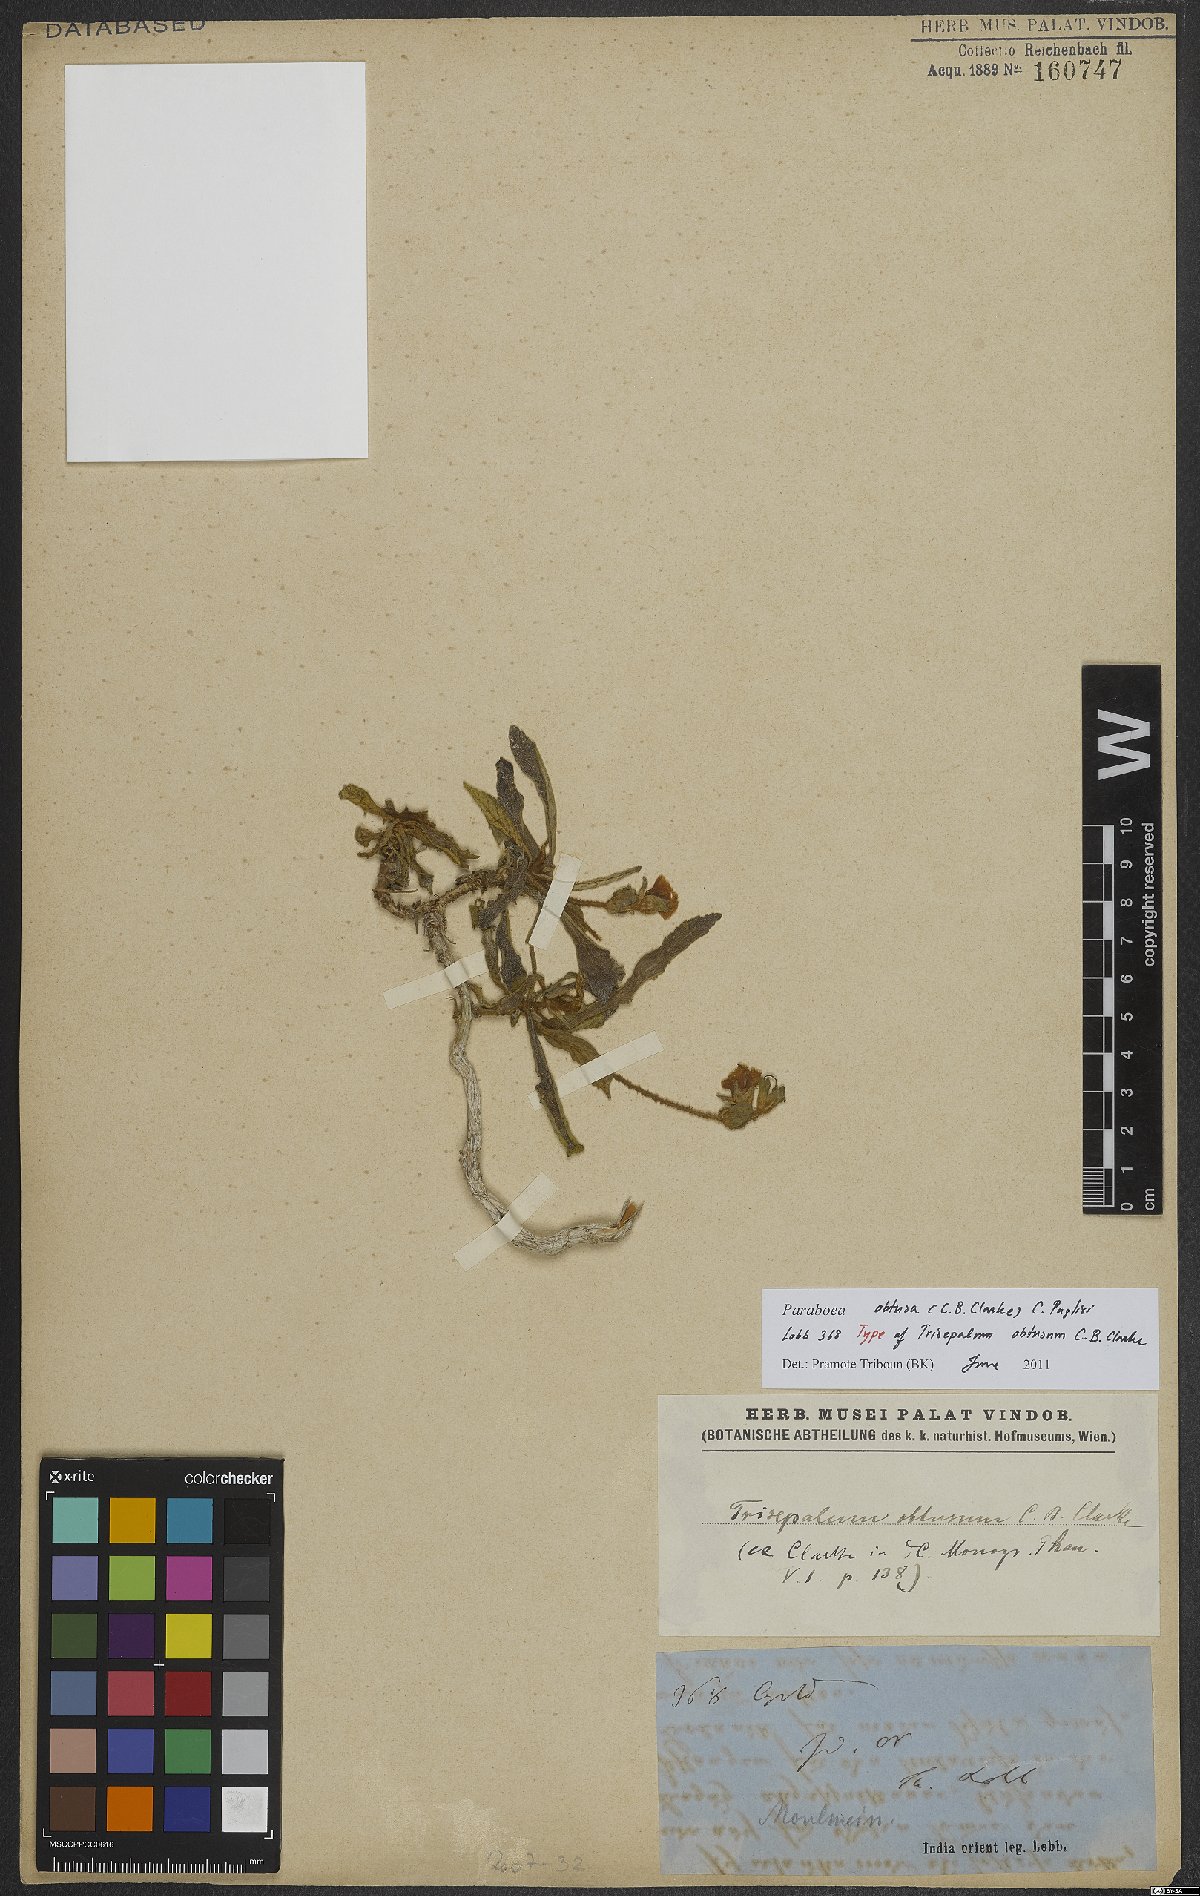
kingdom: Plantae
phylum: Tracheophyta
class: Magnoliopsida
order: Lamiales
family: Gesneriaceae
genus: Paraboea
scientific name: Paraboea obtusa
